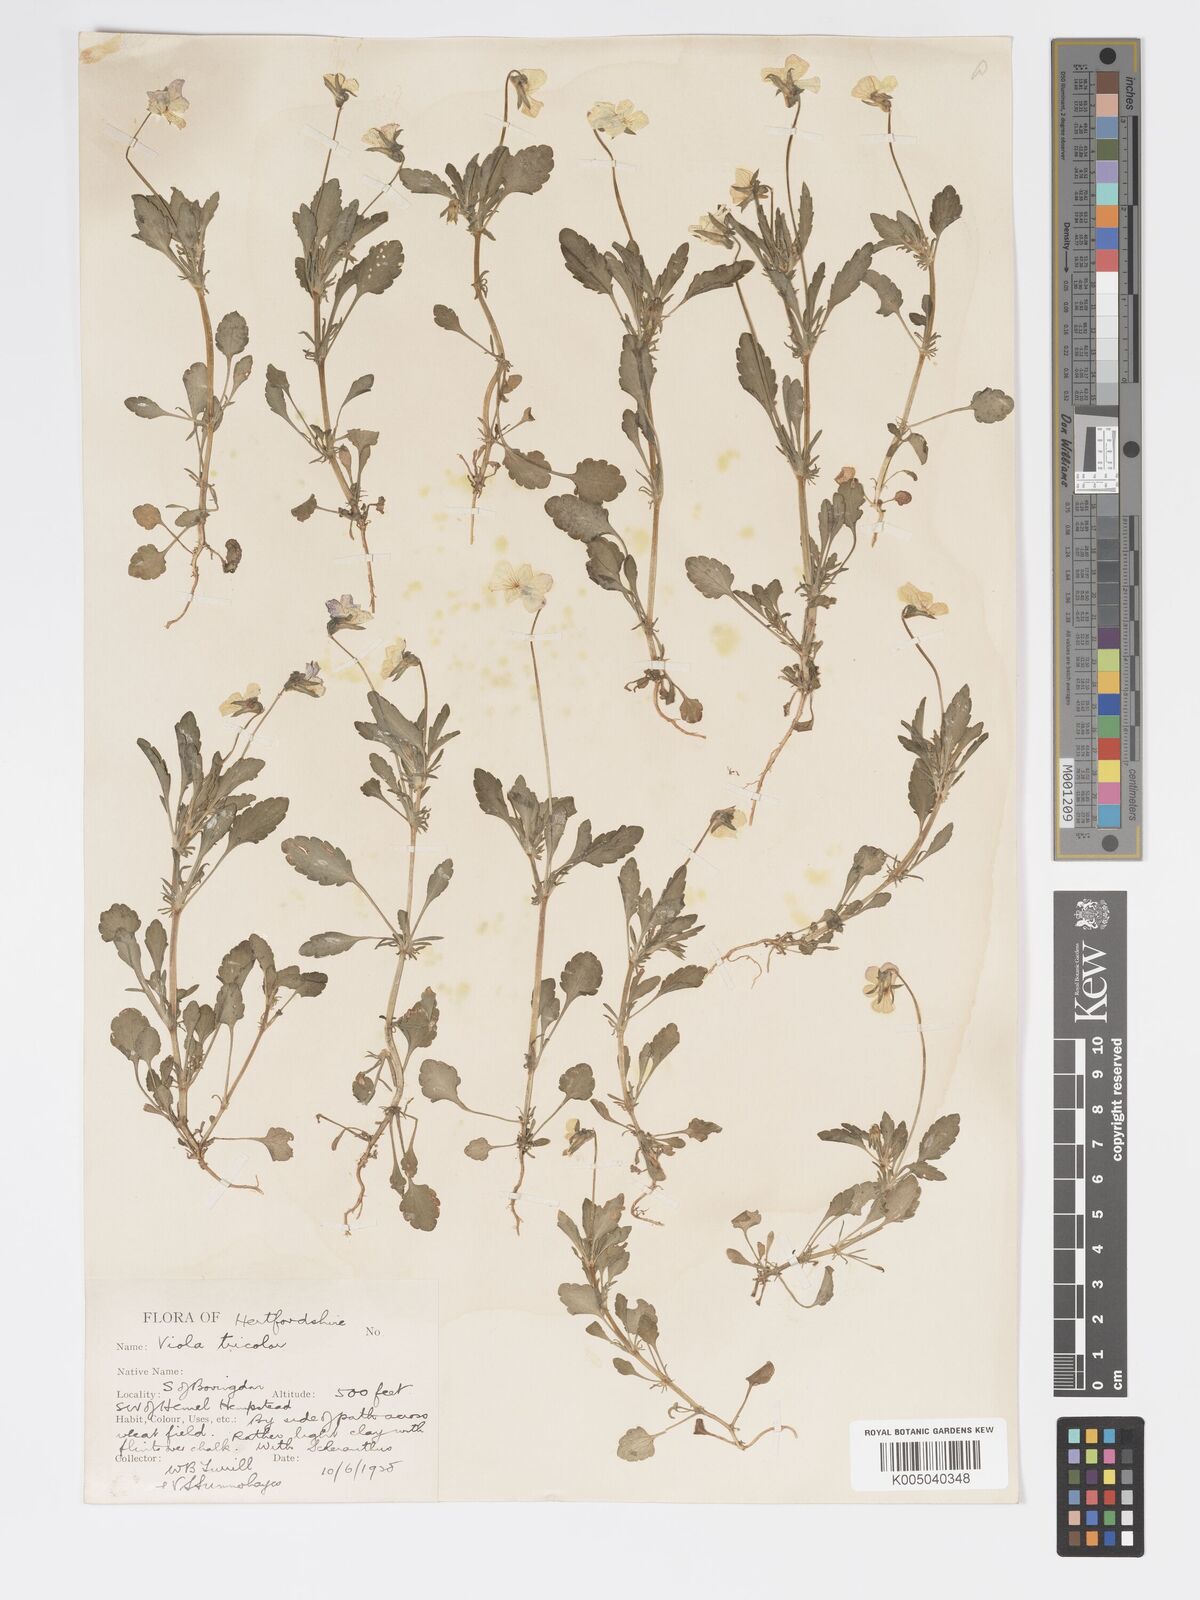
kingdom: Plantae
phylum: Tracheophyta
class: Magnoliopsida
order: Malpighiales
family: Violaceae
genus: Viola
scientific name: Viola arvensis
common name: Field pansy
